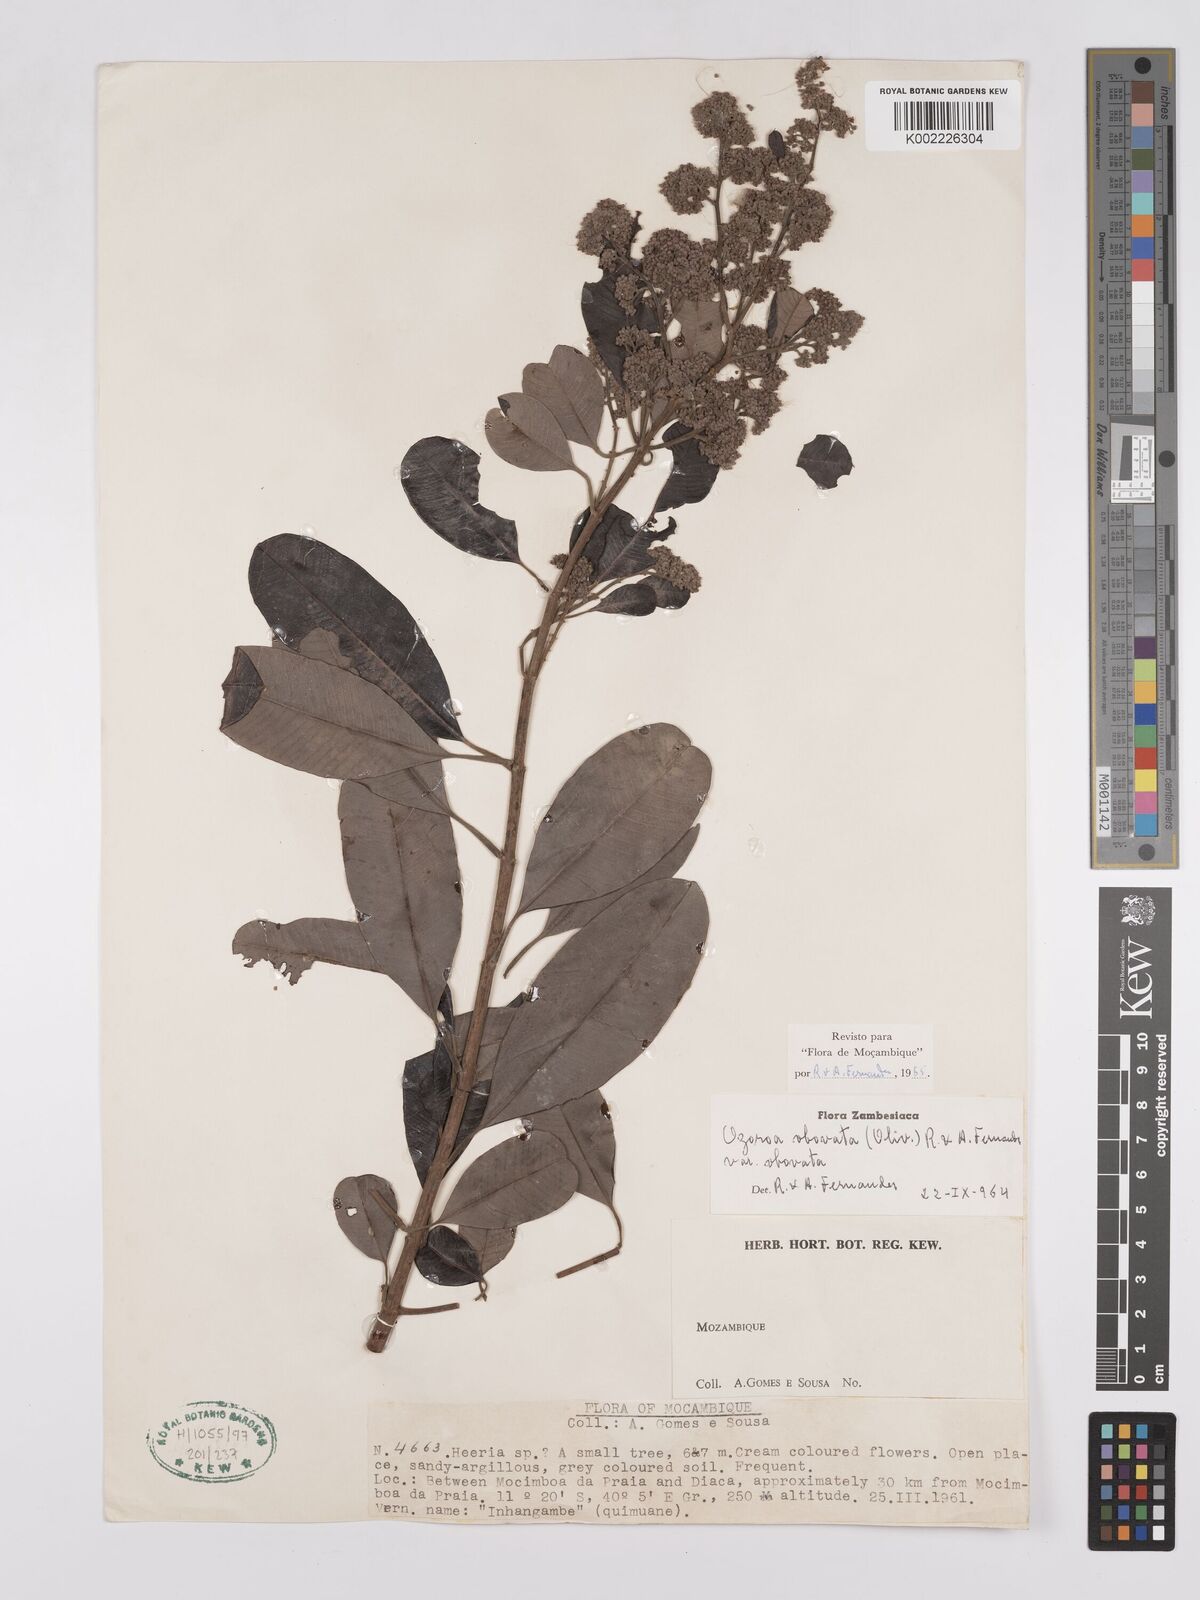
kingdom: Plantae
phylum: Tracheophyta
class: Magnoliopsida
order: Sapindales
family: Anacardiaceae
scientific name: Anacardiaceae
